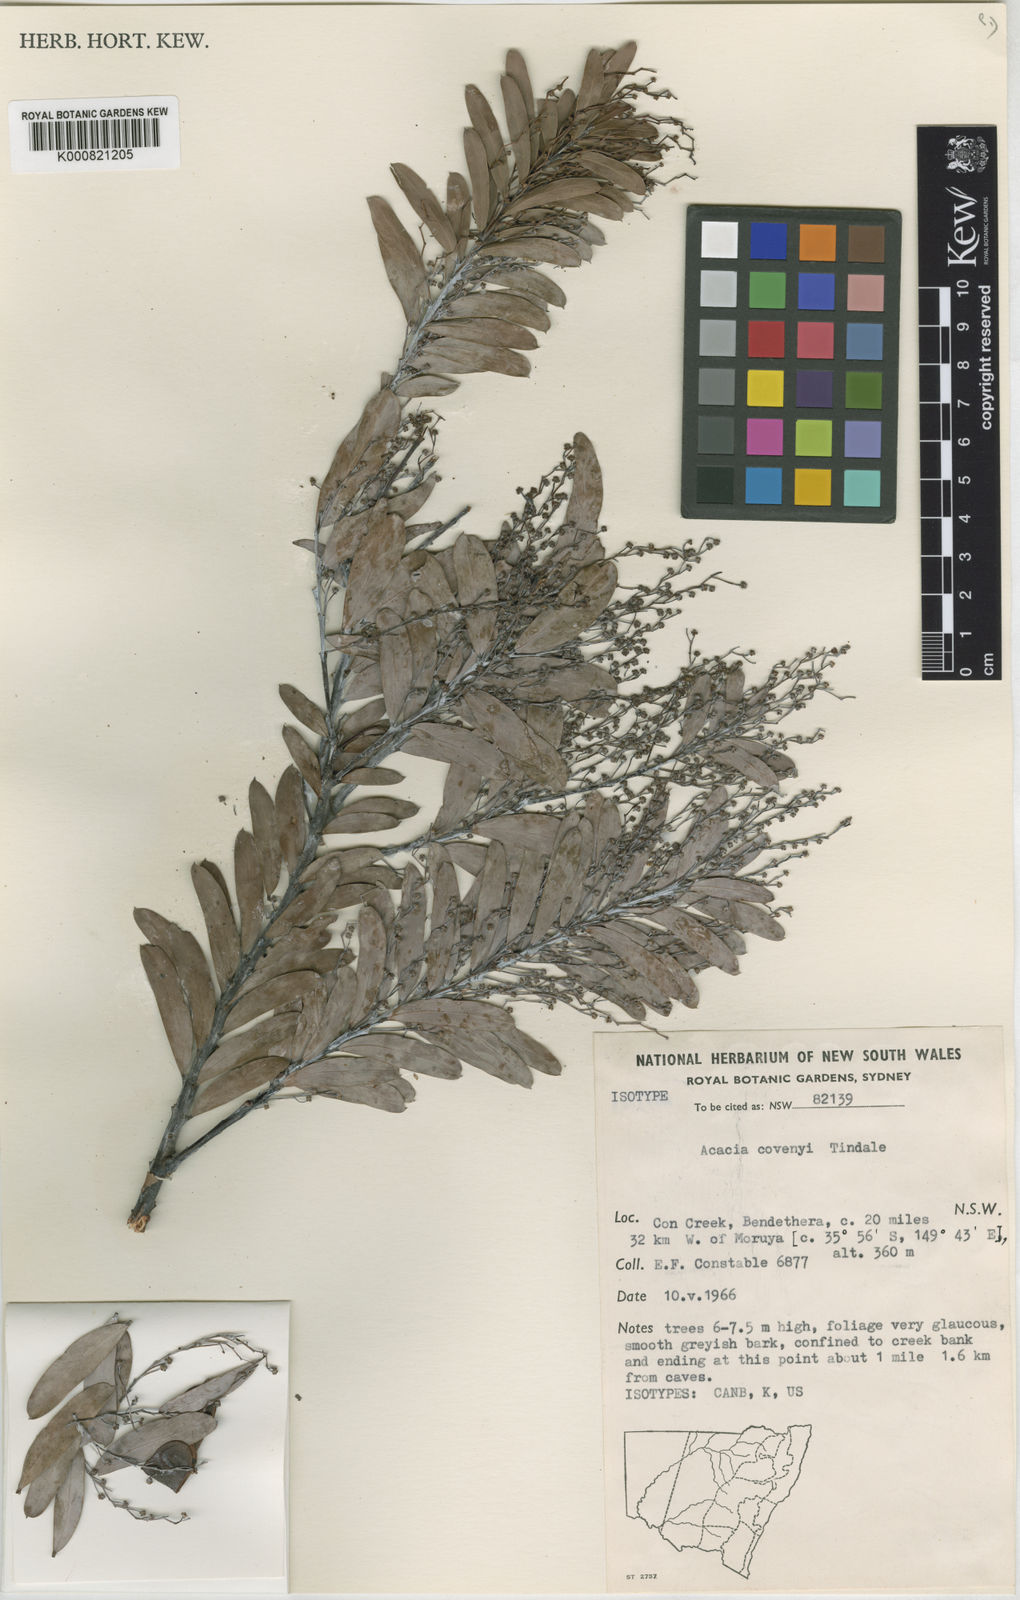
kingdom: Plantae
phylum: Tracheophyta
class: Magnoliopsida
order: Fabales
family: Fabaceae
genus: Acacia
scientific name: Acacia covenyi
